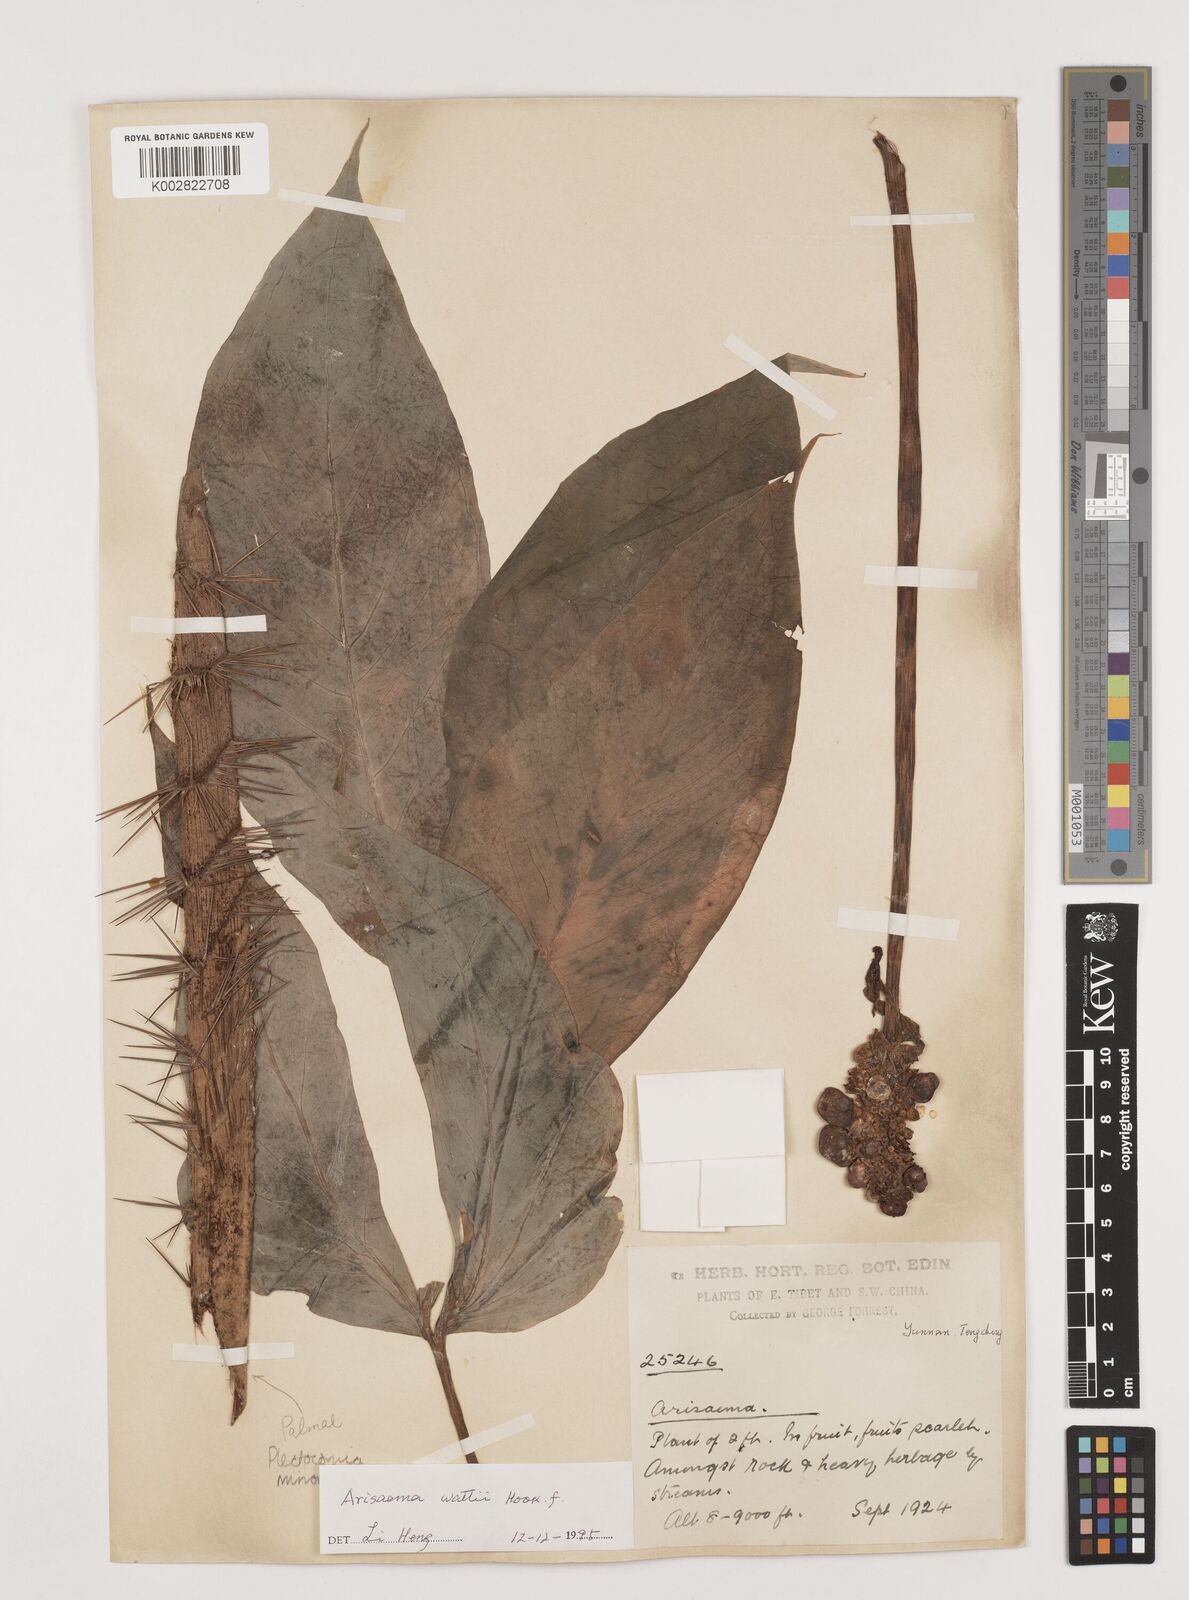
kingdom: Plantae
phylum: Tracheophyta
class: Liliopsida
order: Alismatales
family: Araceae
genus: Arisaema
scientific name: Arisaema wattii
